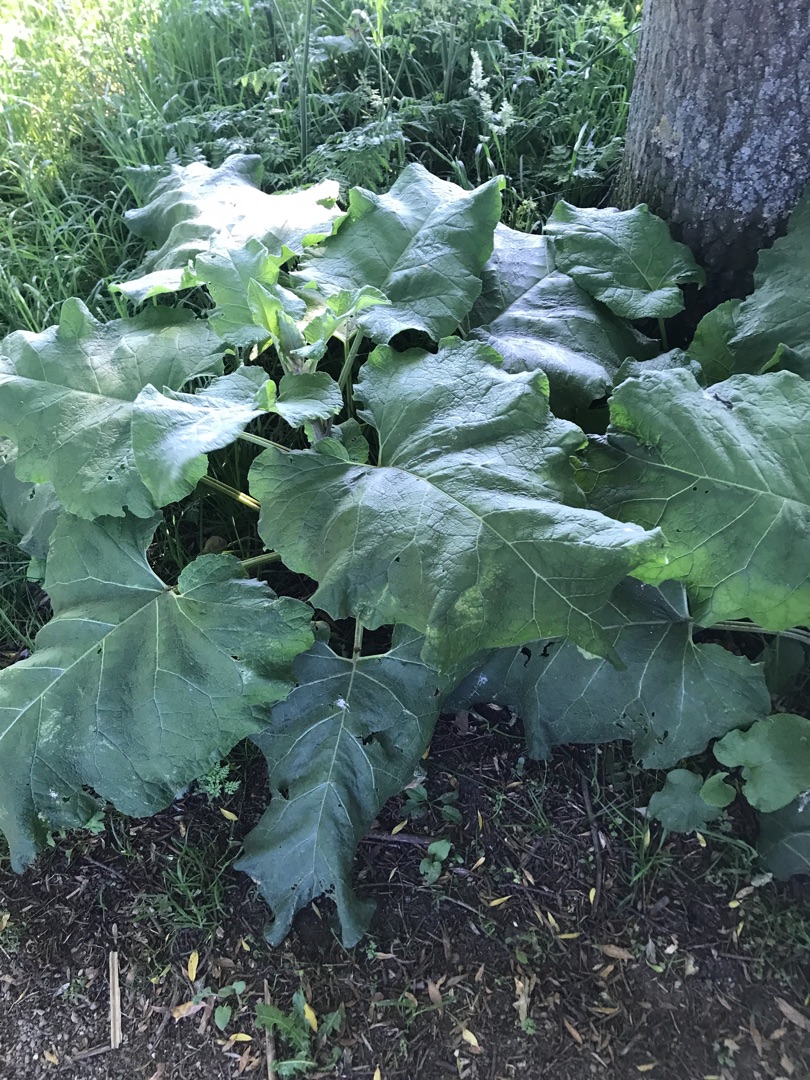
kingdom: Plantae
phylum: Tracheophyta
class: Magnoliopsida
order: Asterales
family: Asteraceae
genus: Arctium
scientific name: Arctium
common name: Burreslægten
